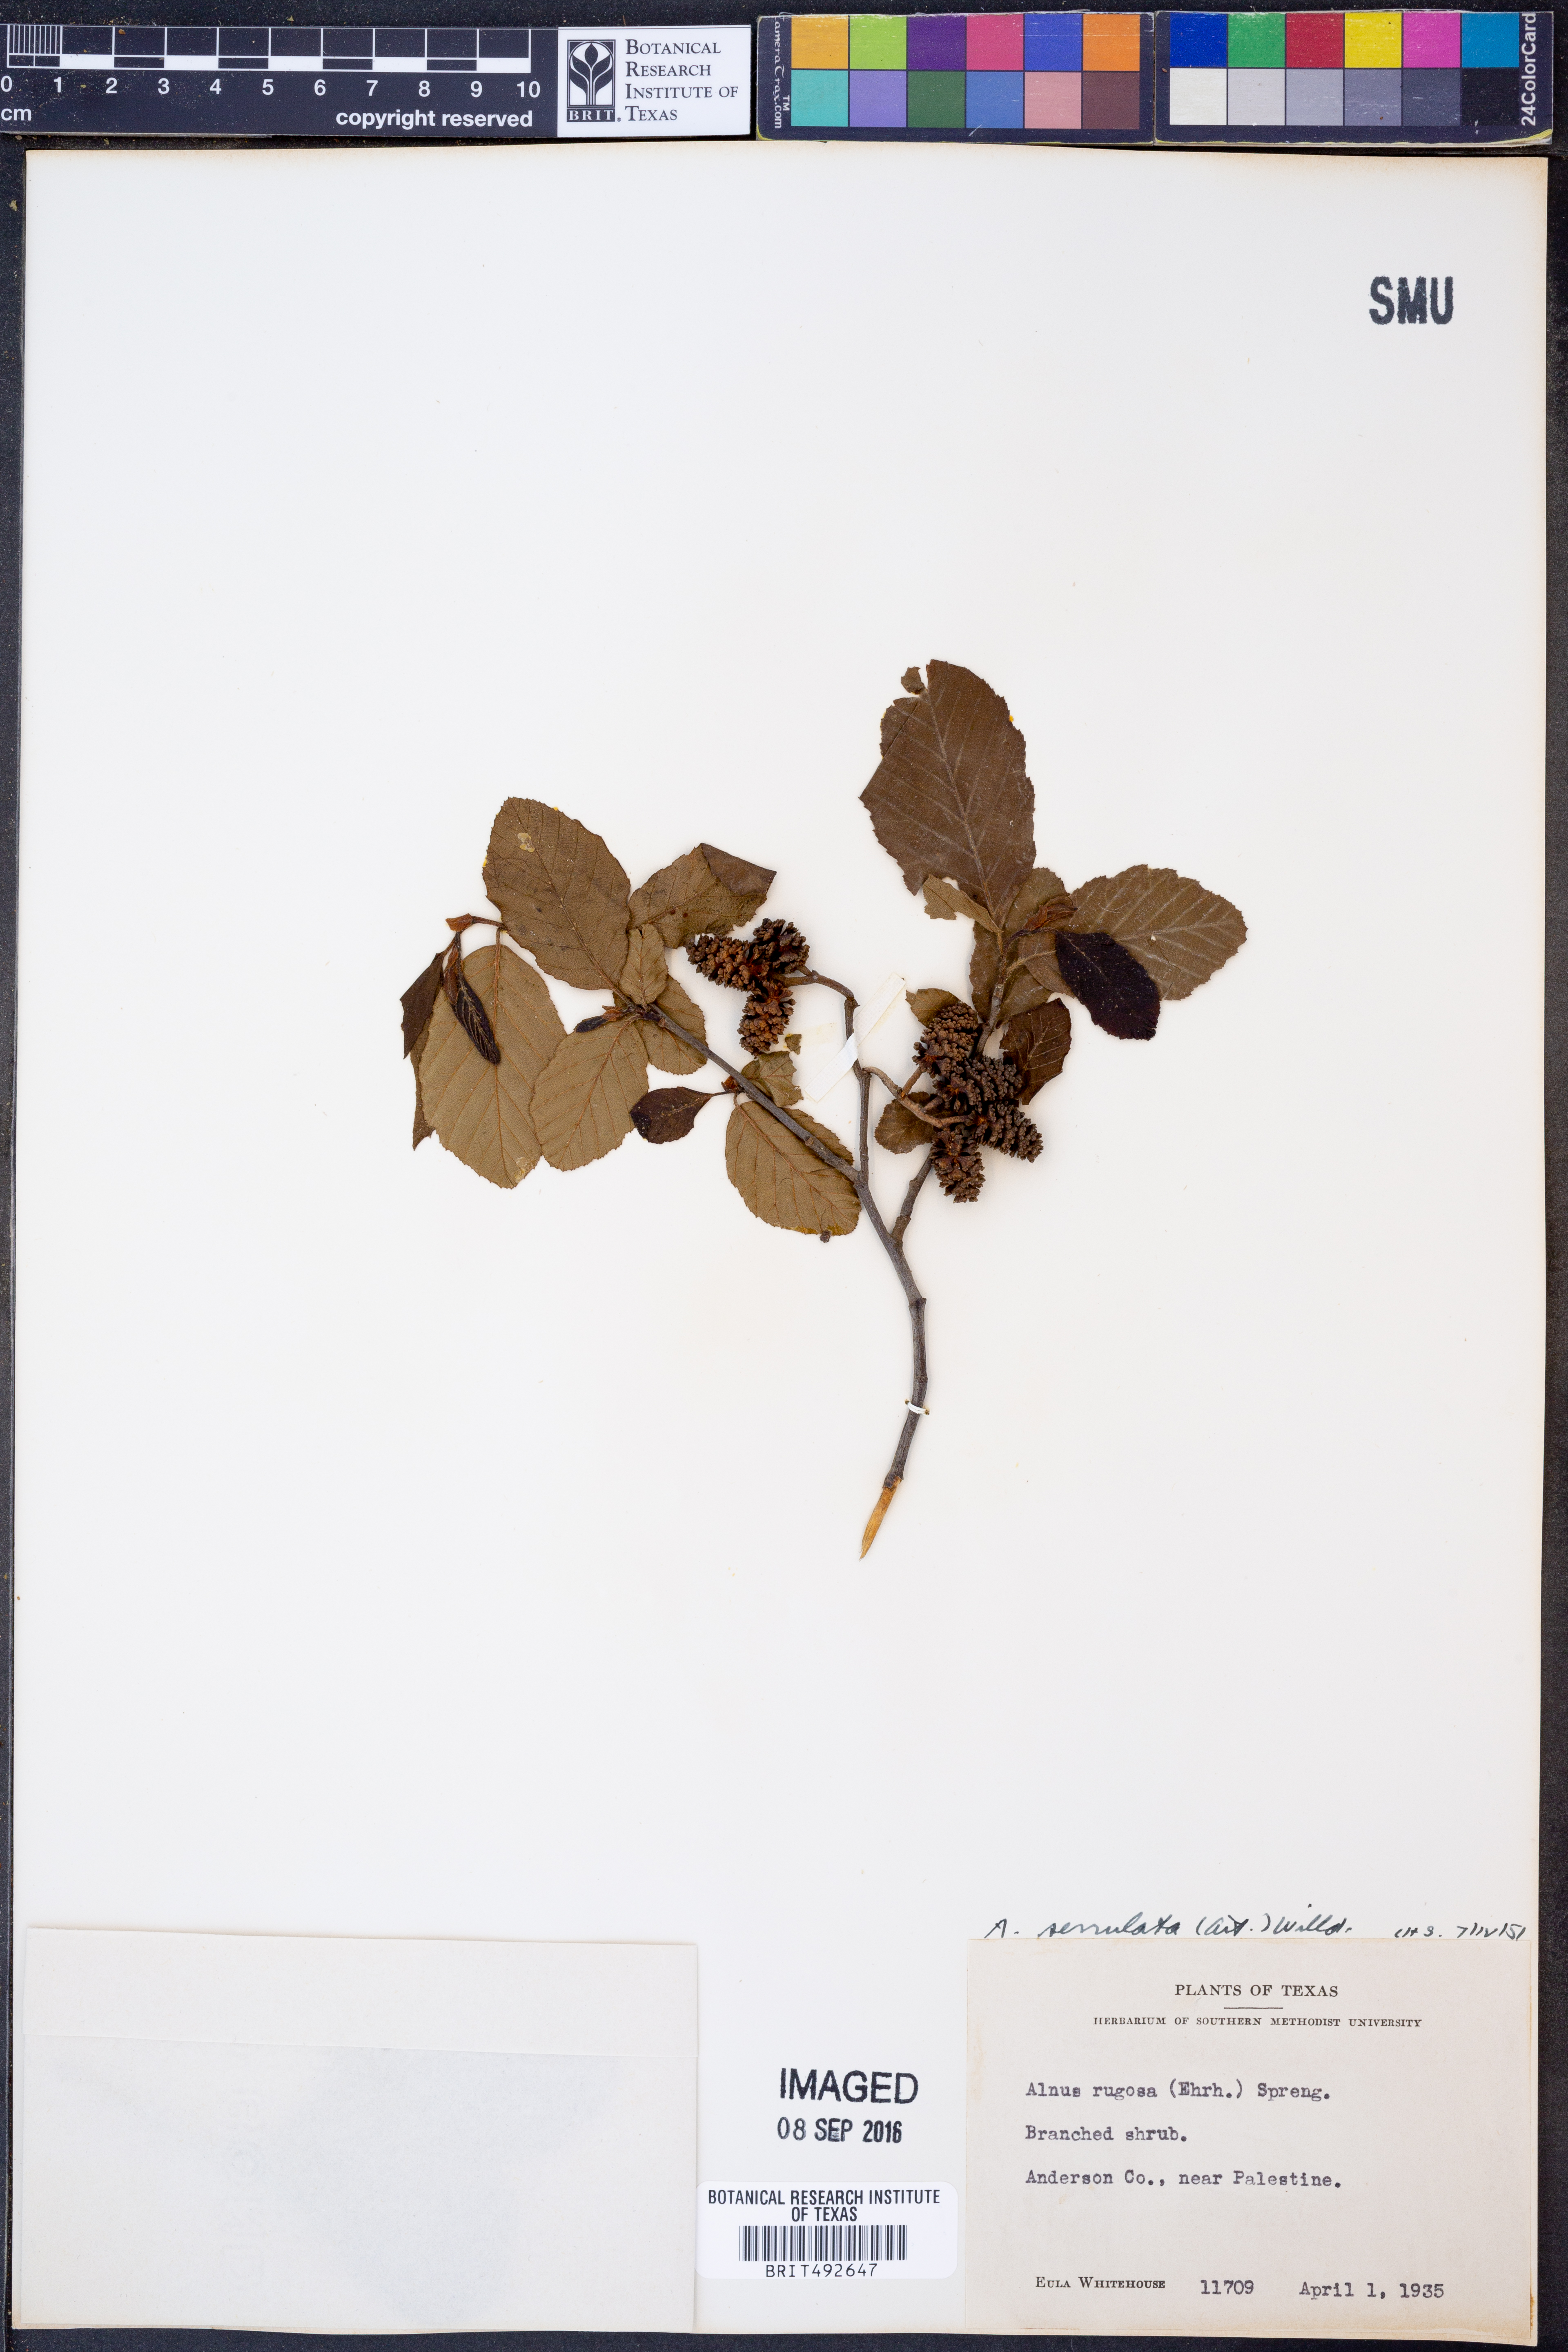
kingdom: Plantae
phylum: Tracheophyta
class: Magnoliopsida
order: Fagales
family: Betulaceae
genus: Alnus
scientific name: Alnus serrulata
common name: Hazel alder
